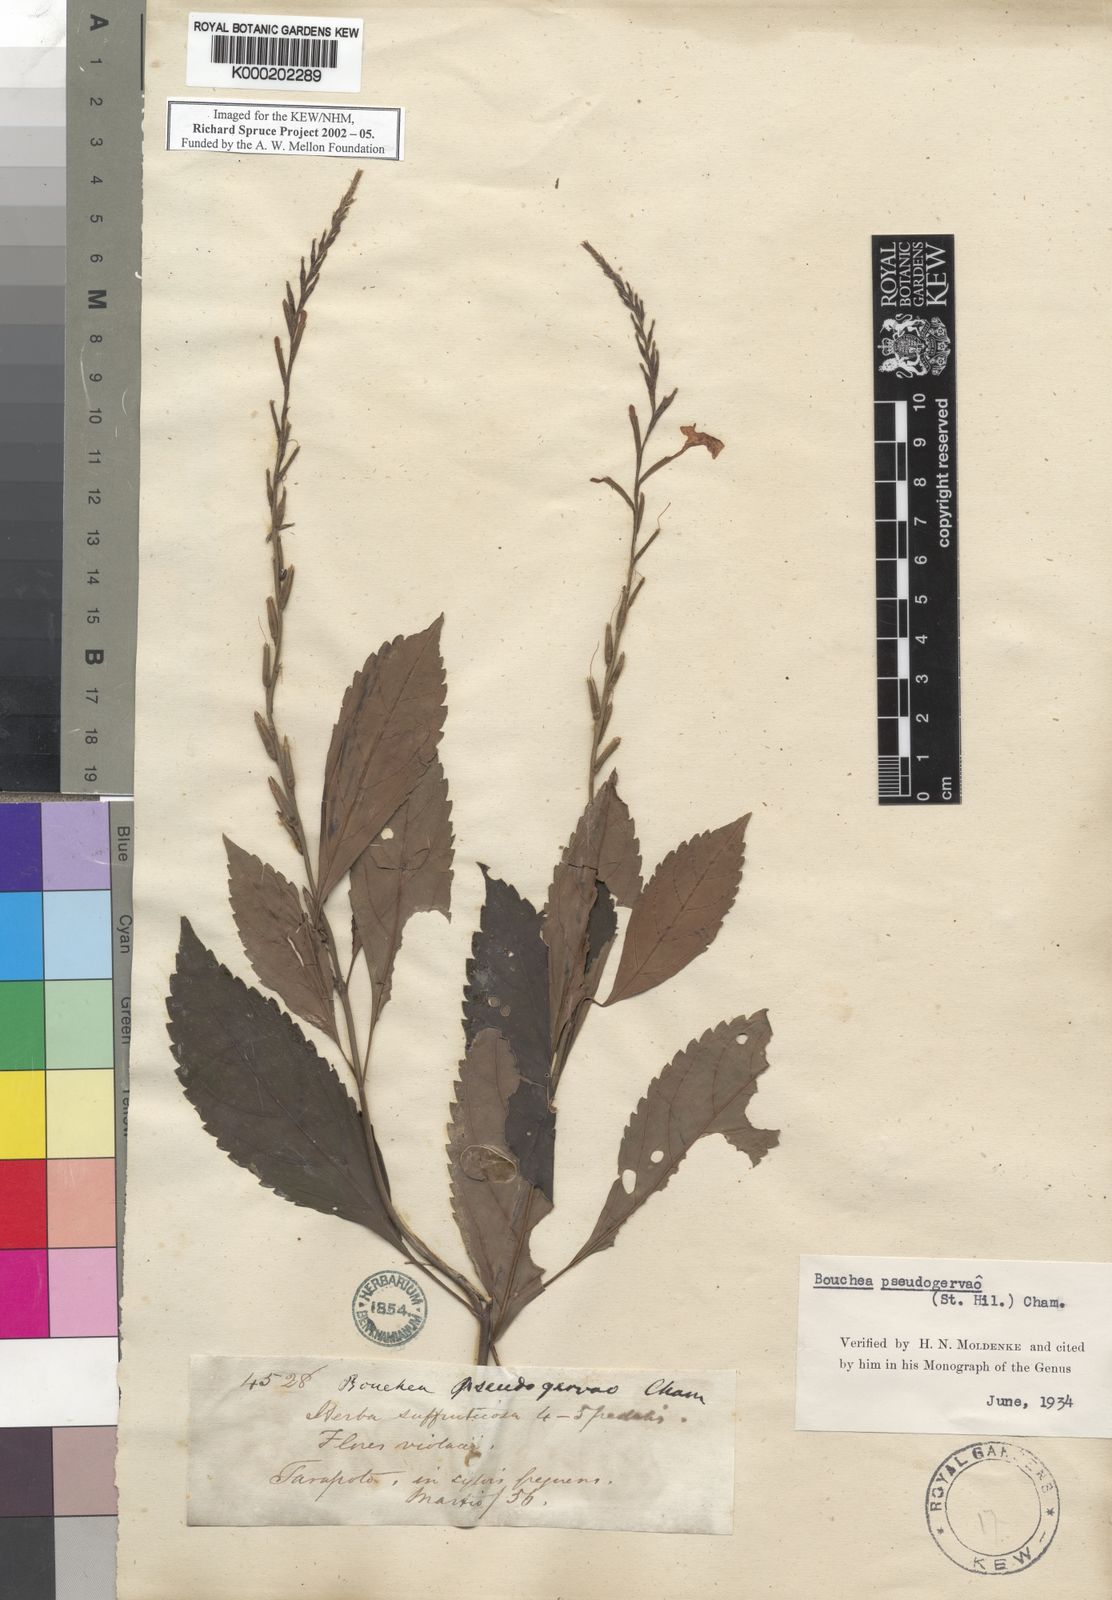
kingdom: Plantae
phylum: Tracheophyta
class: Magnoliopsida
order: Lamiales
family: Verbenaceae
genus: Bouchea
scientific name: Bouchea pseudogervao
